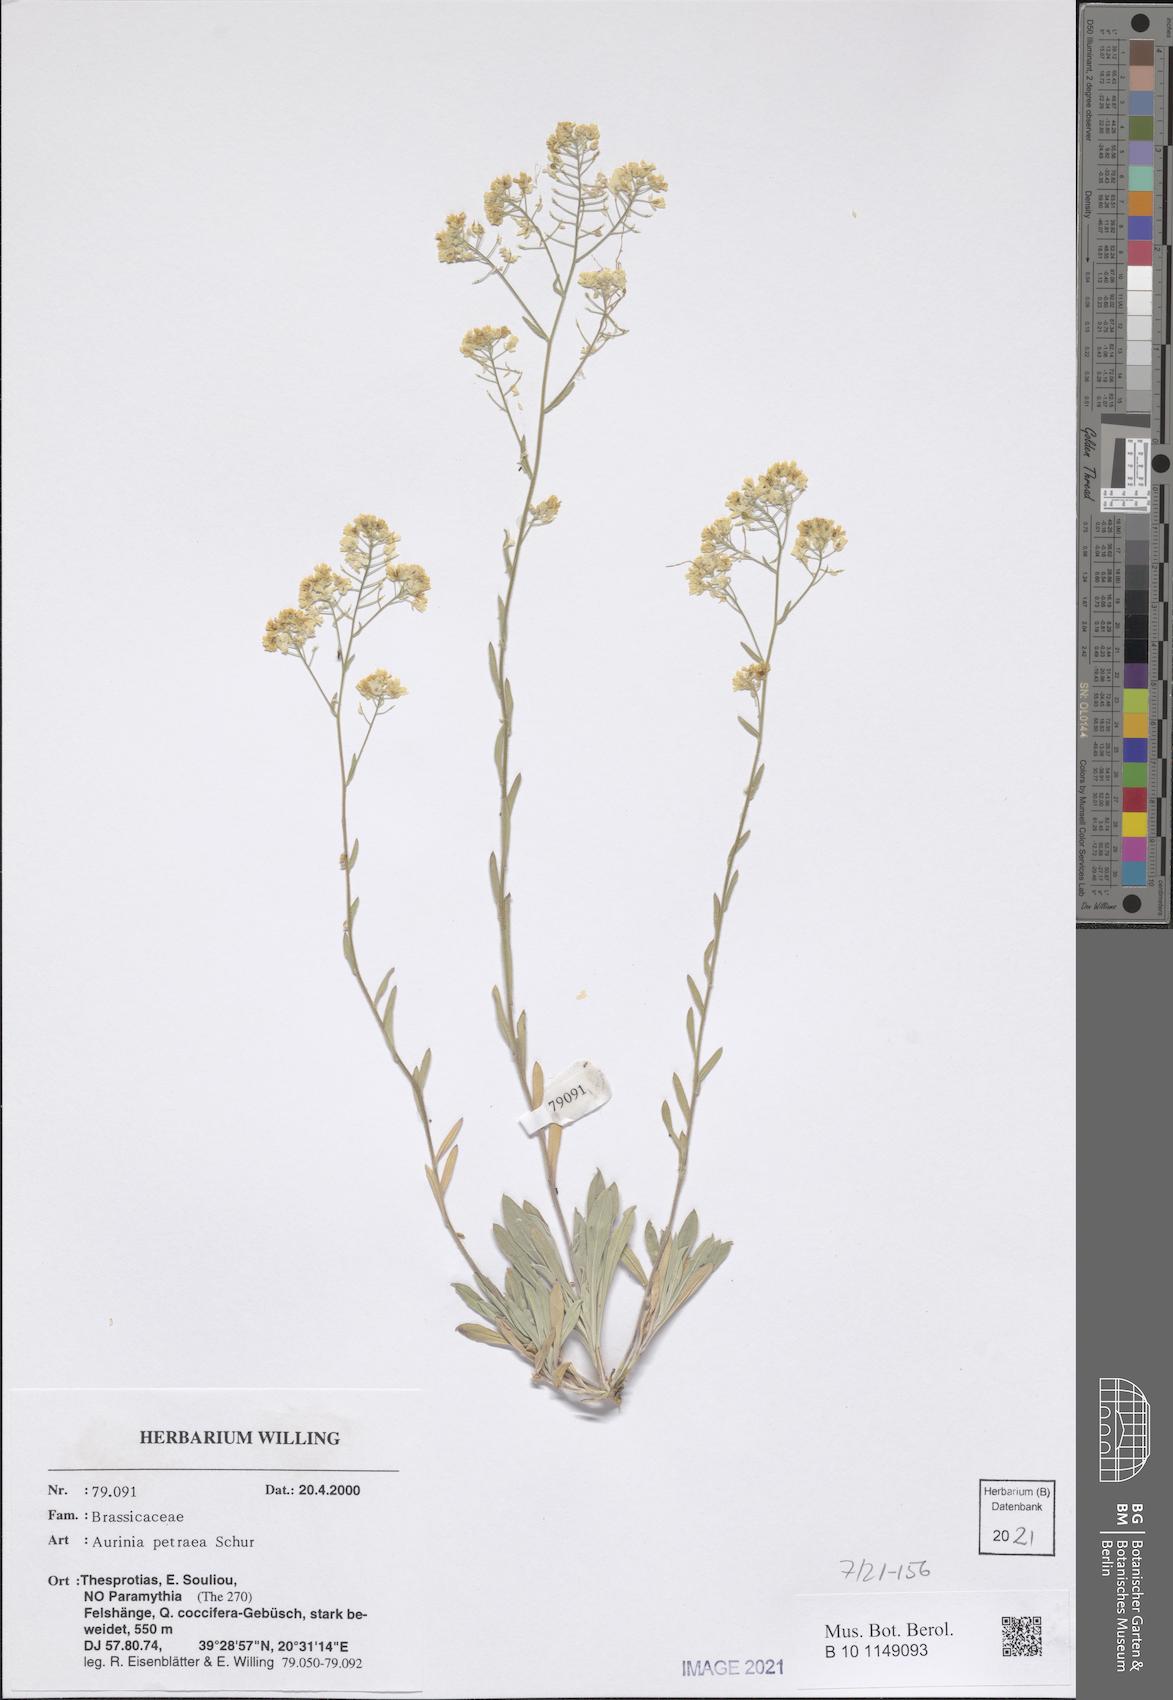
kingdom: Plantae
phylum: Tracheophyta
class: Magnoliopsida
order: Brassicales
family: Brassicaceae
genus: Aurinia
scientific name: Aurinia petraea
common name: Goldentuft
